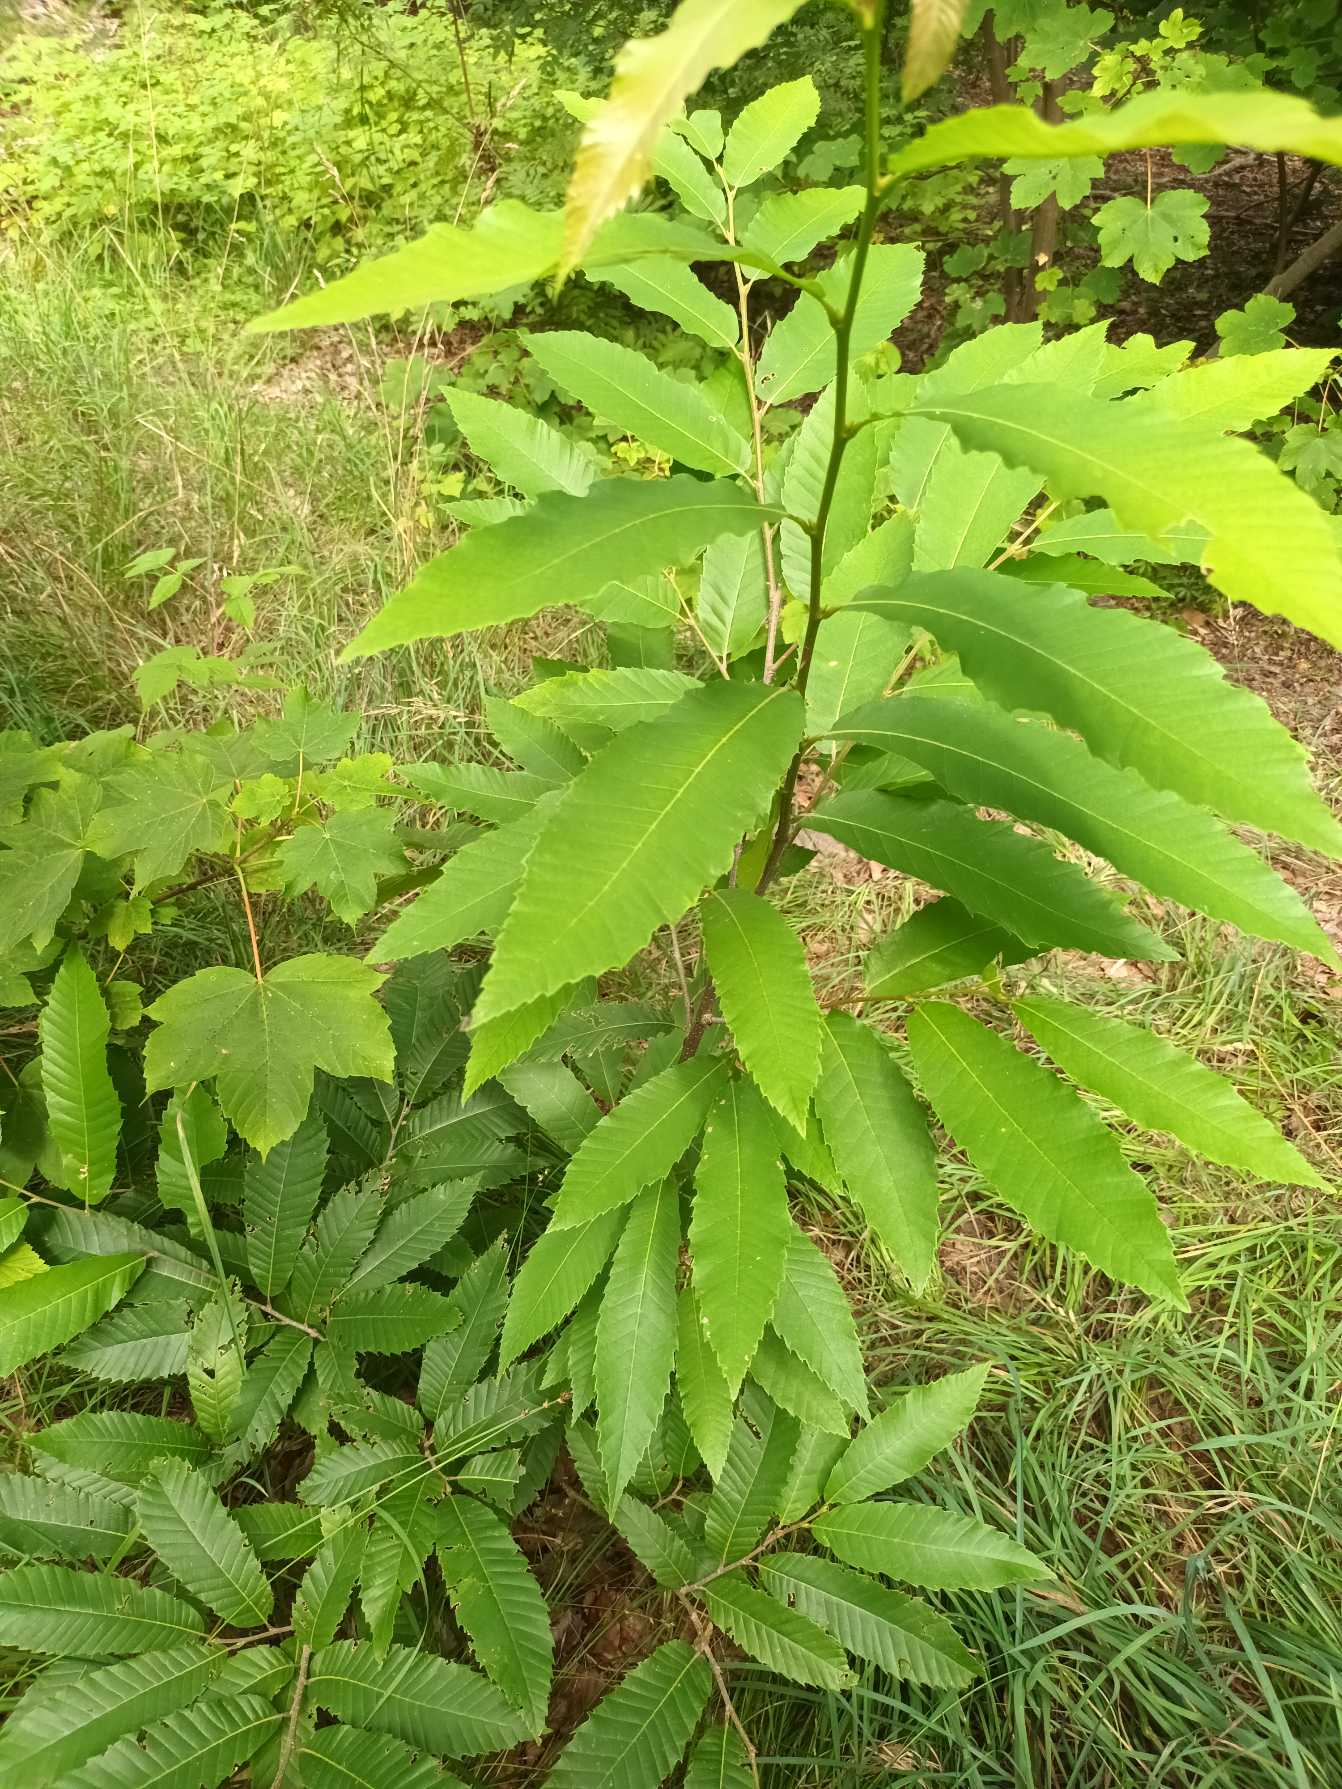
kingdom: Plantae
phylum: Tracheophyta
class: Magnoliopsida
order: Fagales
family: Fagaceae
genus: Castanea
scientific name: Castanea sativa
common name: Ægte kastanie
